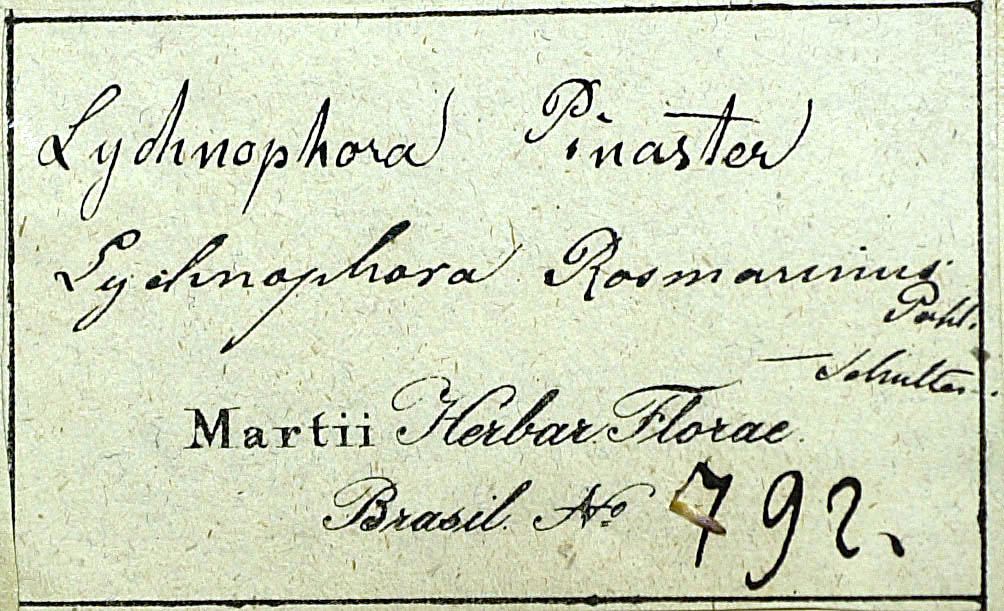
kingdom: Plantae
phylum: Tracheophyta
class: Magnoliopsida
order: Asterales
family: Asteraceae
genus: Lychnophora
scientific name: Lychnophora ericoides
